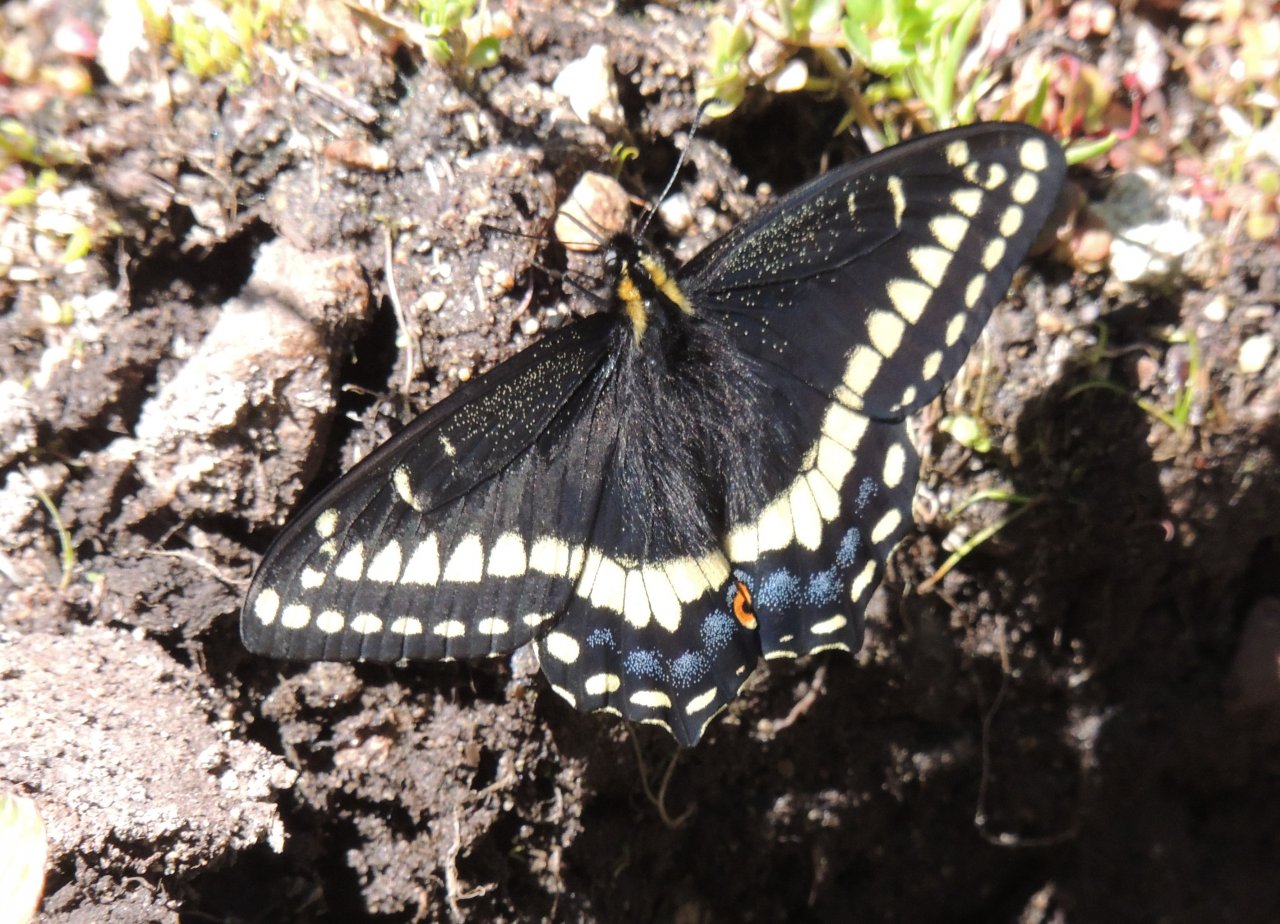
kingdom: Animalia
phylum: Arthropoda
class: Insecta
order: Lepidoptera
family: Papilionidae
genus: Papilio
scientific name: Papilio indra
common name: Indra Swallowtail
